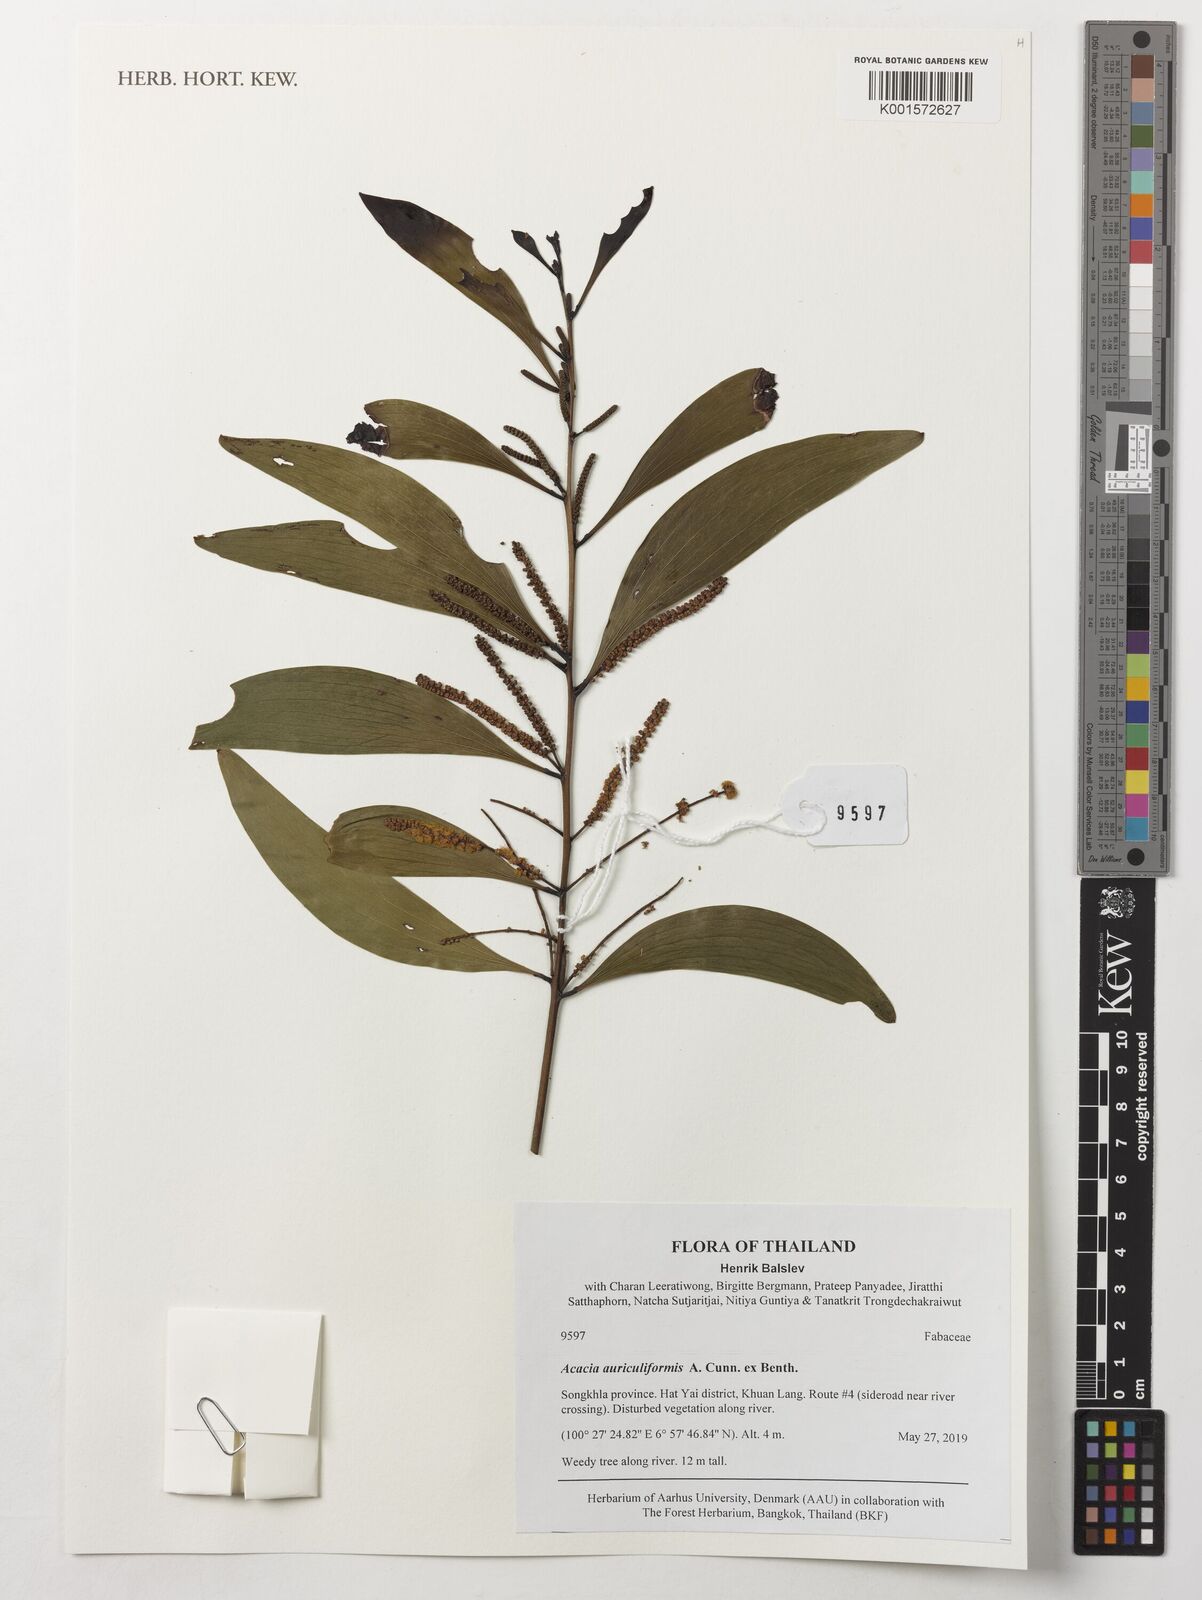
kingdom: Plantae
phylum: Tracheophyta
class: Magnoliopsida
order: Fabales
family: Fabaceae
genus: Acacia
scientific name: Acacia auriculiformis
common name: Earleaf acacia
